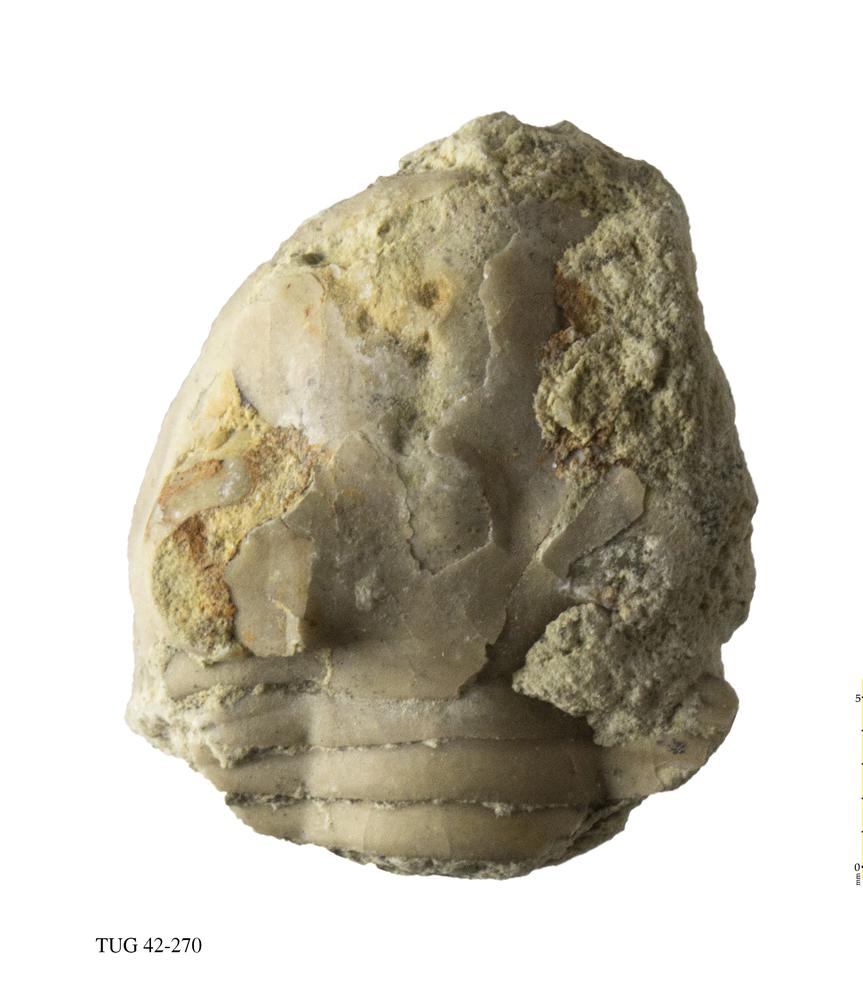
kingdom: Animalia
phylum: Arthropoda
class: Trilobita
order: Asaphida
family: Asaphidae
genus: Asaphus
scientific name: Asaphus expansus
